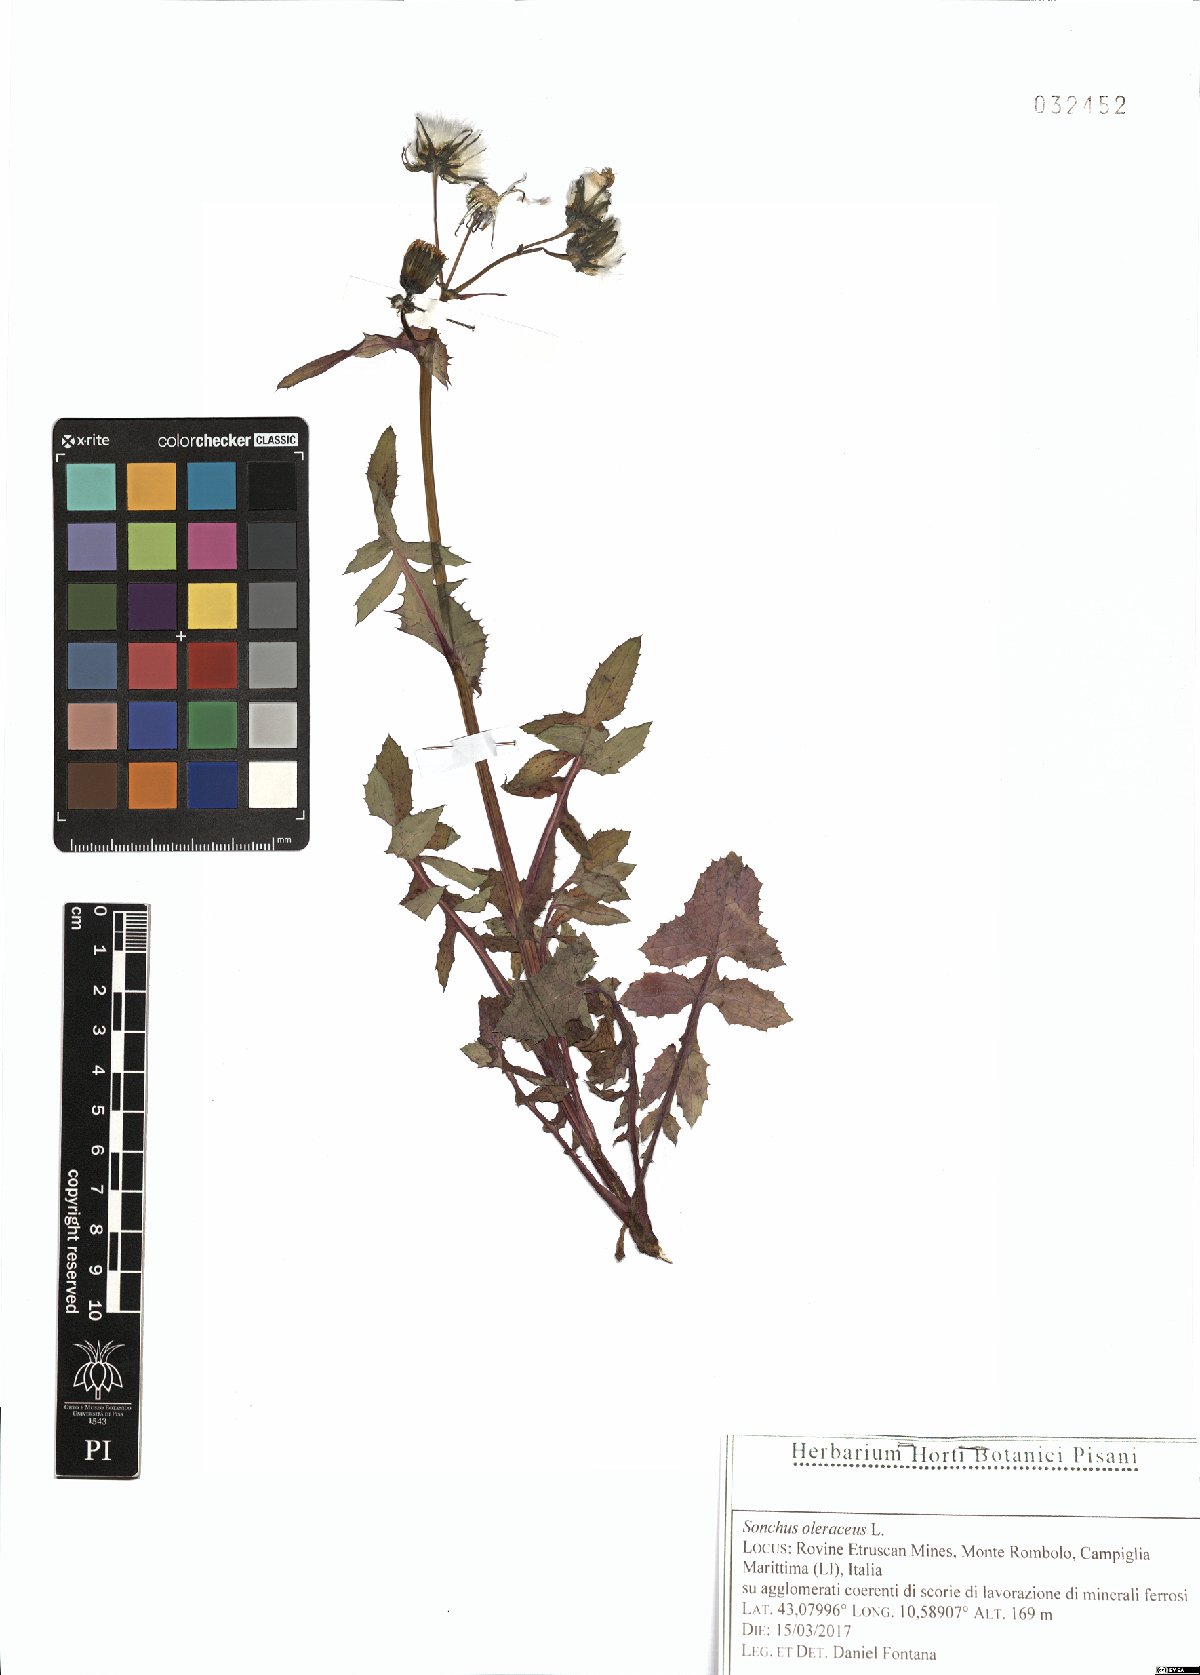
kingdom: Plantae
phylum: Tracheophyta
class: Magnoliopsida
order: Asterales
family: Asteraceae
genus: Sonchus
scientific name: Sonchus oleraceus
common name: Common sowthistle
